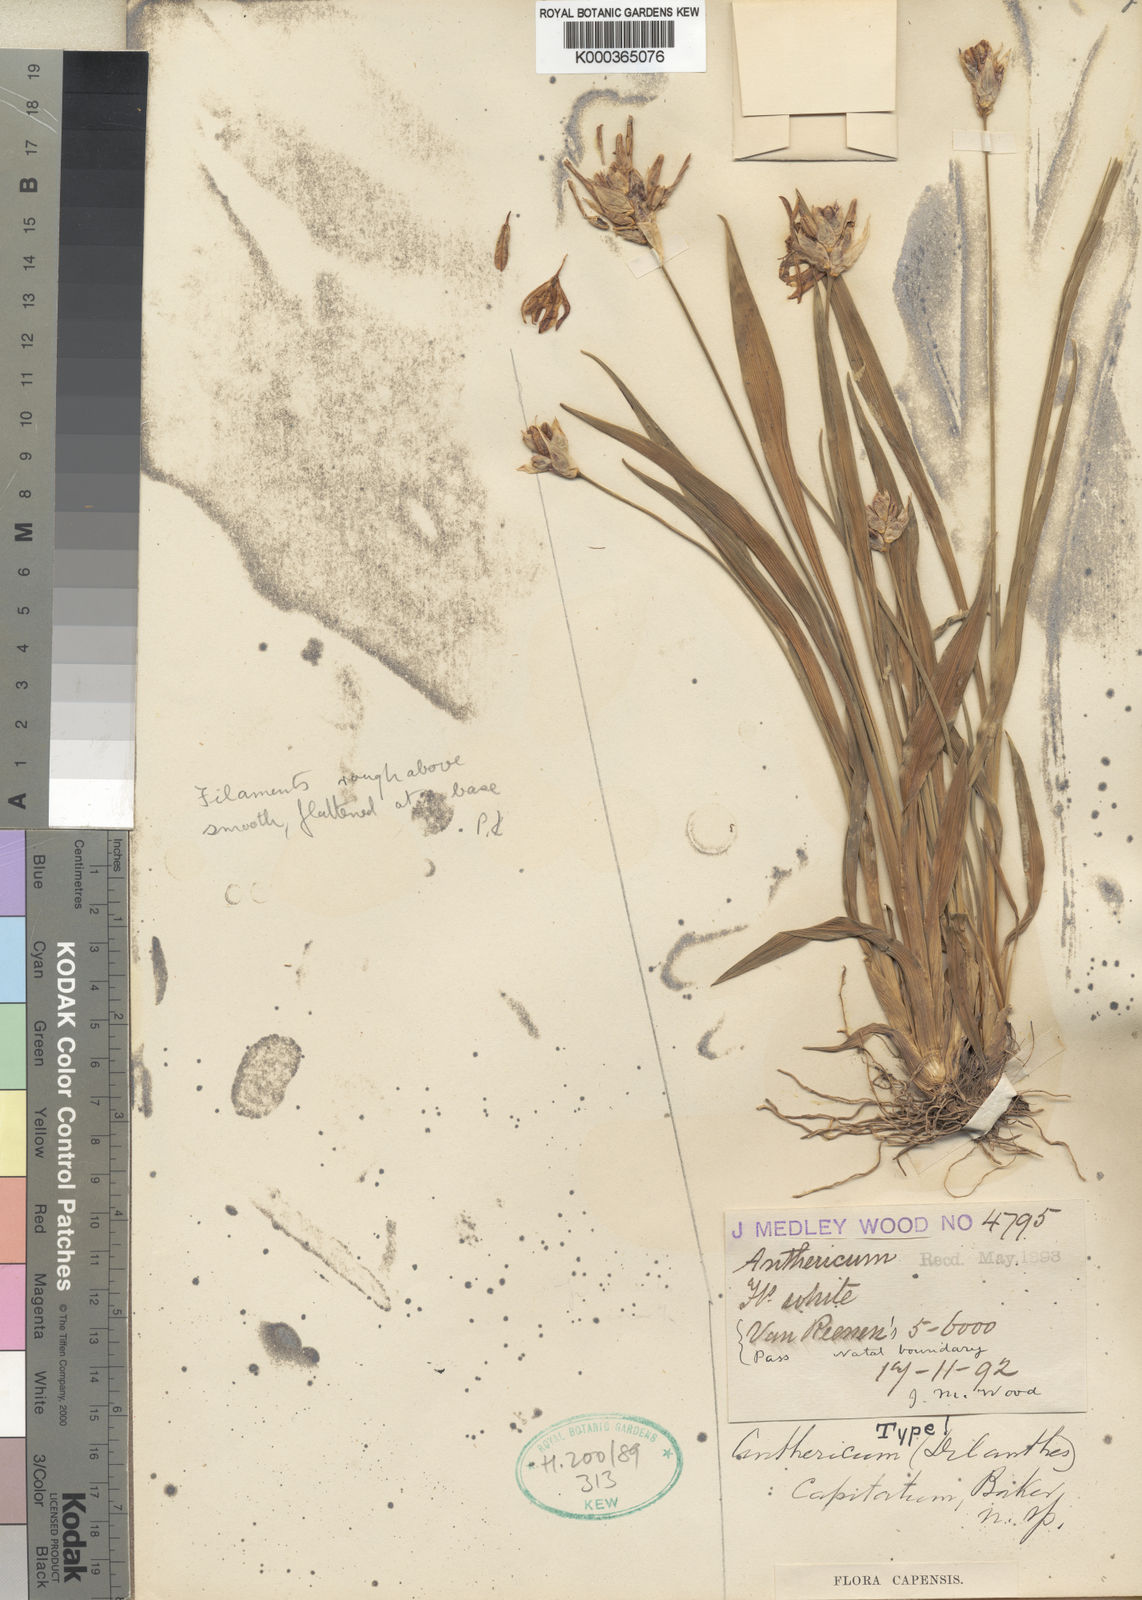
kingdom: Plantae
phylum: Tracheophyta
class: Liliopsida
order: Asparagales
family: Asparagaceae
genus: Chlorophytum
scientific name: Chlorophytum cooperi
